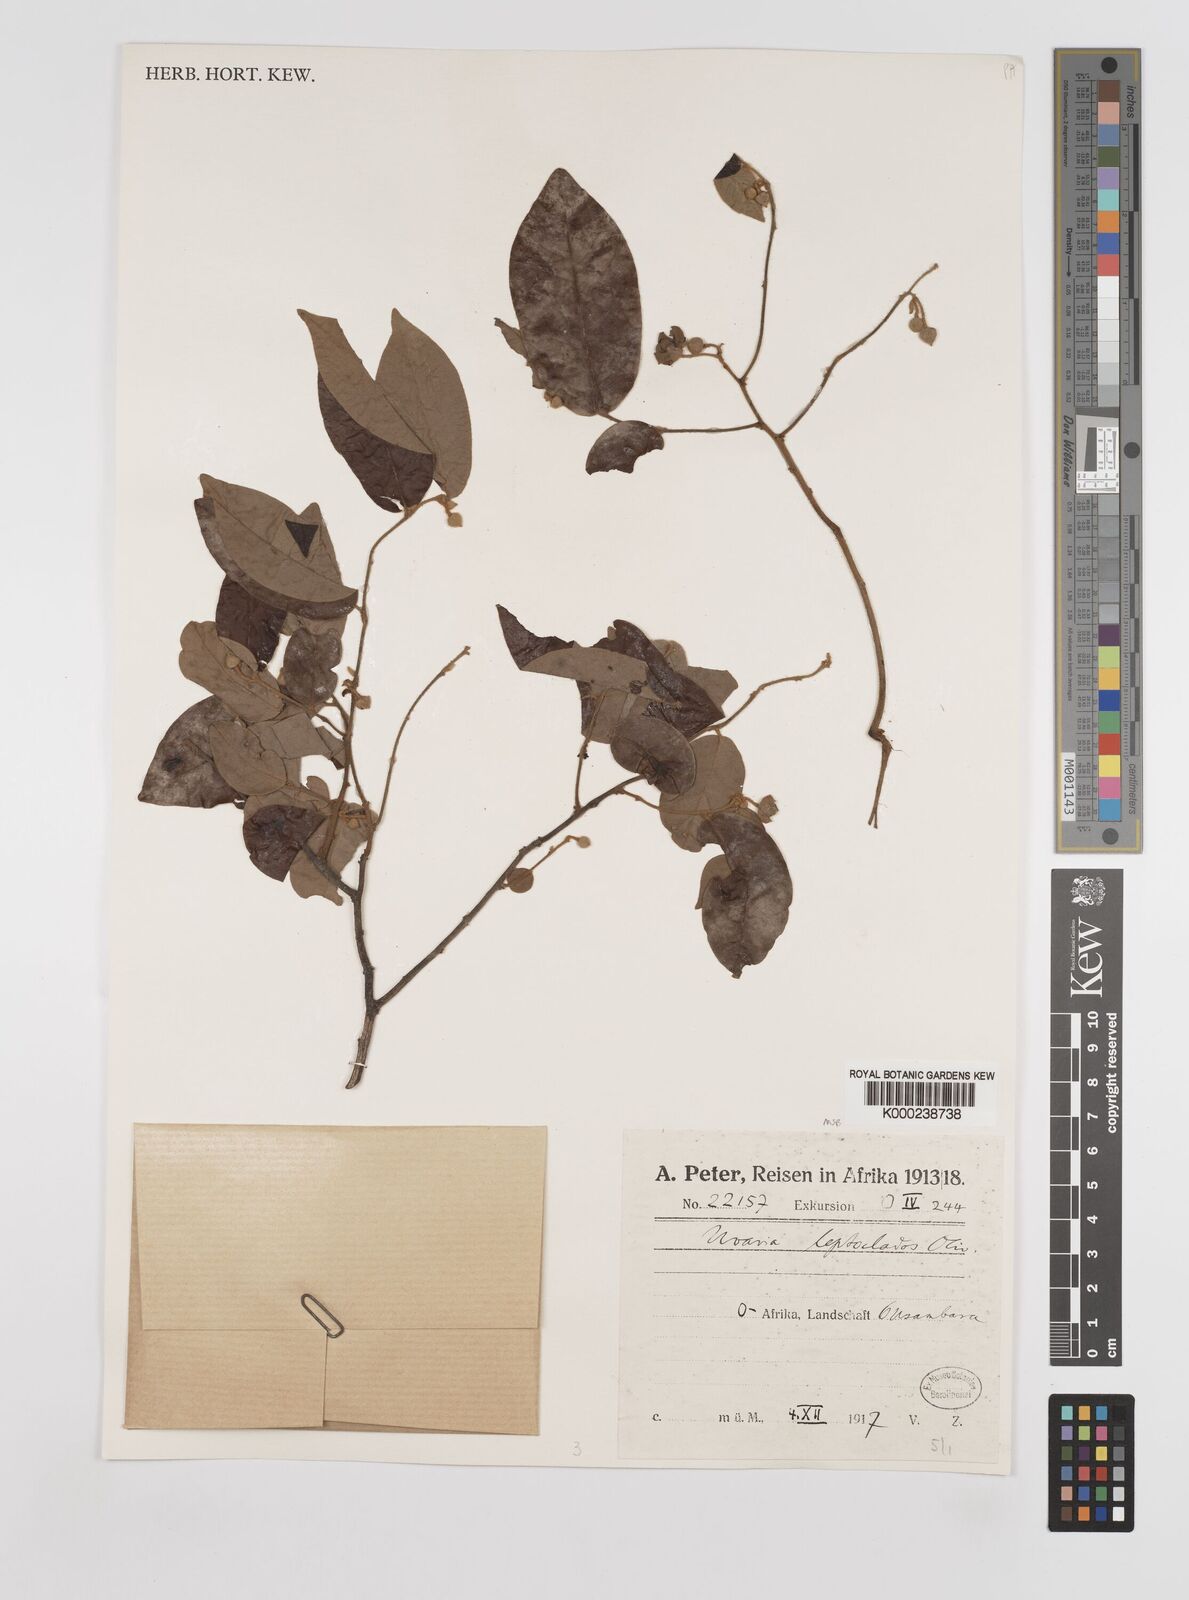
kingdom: Plantae
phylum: Tracheophyta
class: Magnoliopsida
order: Magnoliales
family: Annonaceae
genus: Uvaria
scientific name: Uvaria leptocladon
